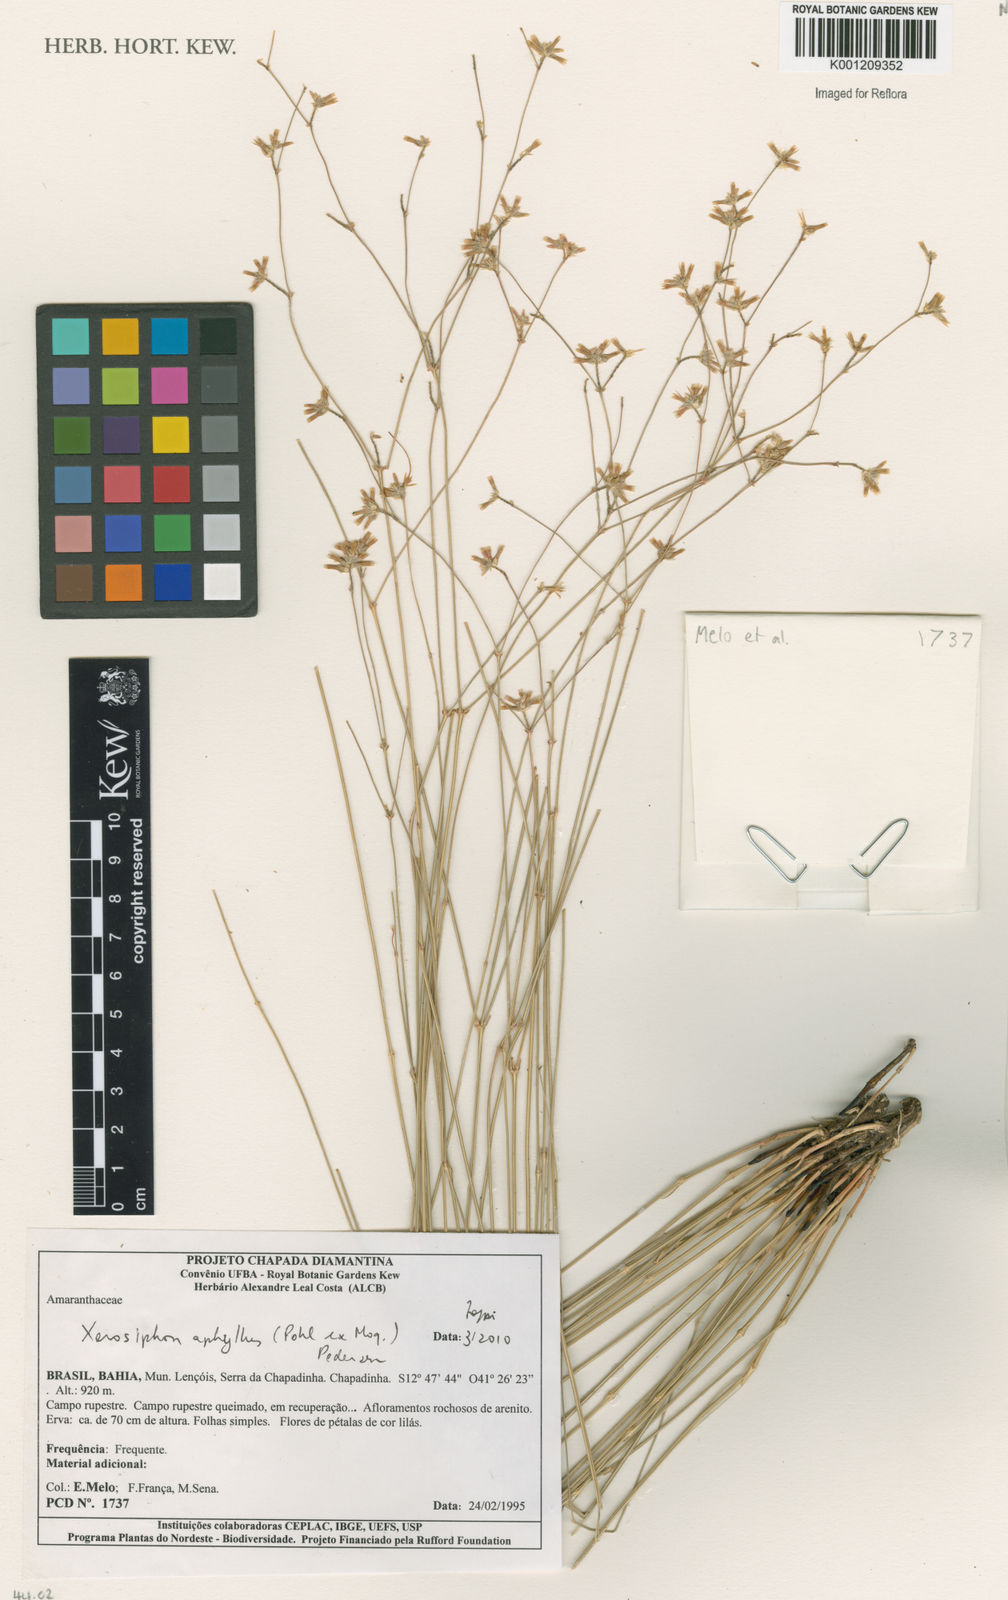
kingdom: Plantae
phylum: Tracheophyta
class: Magnoliopsida
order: Caryophyllales
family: Amaranthaceae
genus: Gomphrena
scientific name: Gomphrena aphylla
